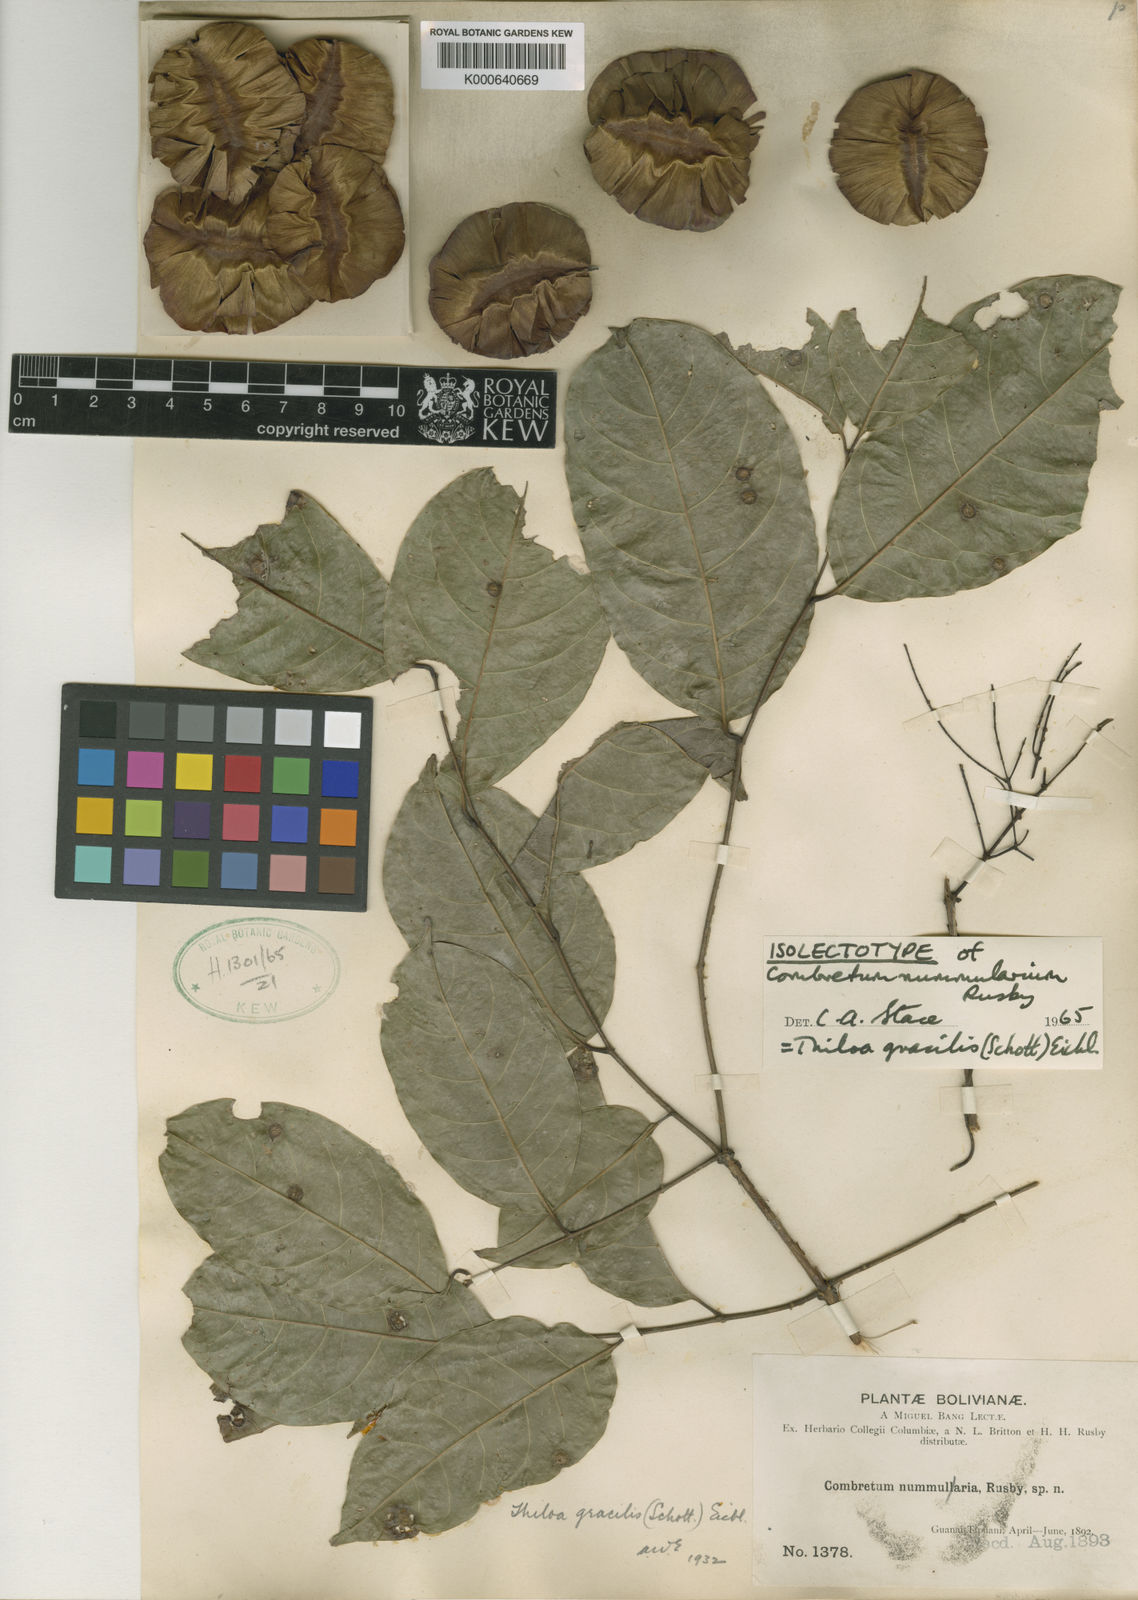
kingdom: Plantae
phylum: Tracheophyta
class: Magnoliopsida
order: Myrtales
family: Combretaceae
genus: Combretum
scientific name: Combretum gracile
